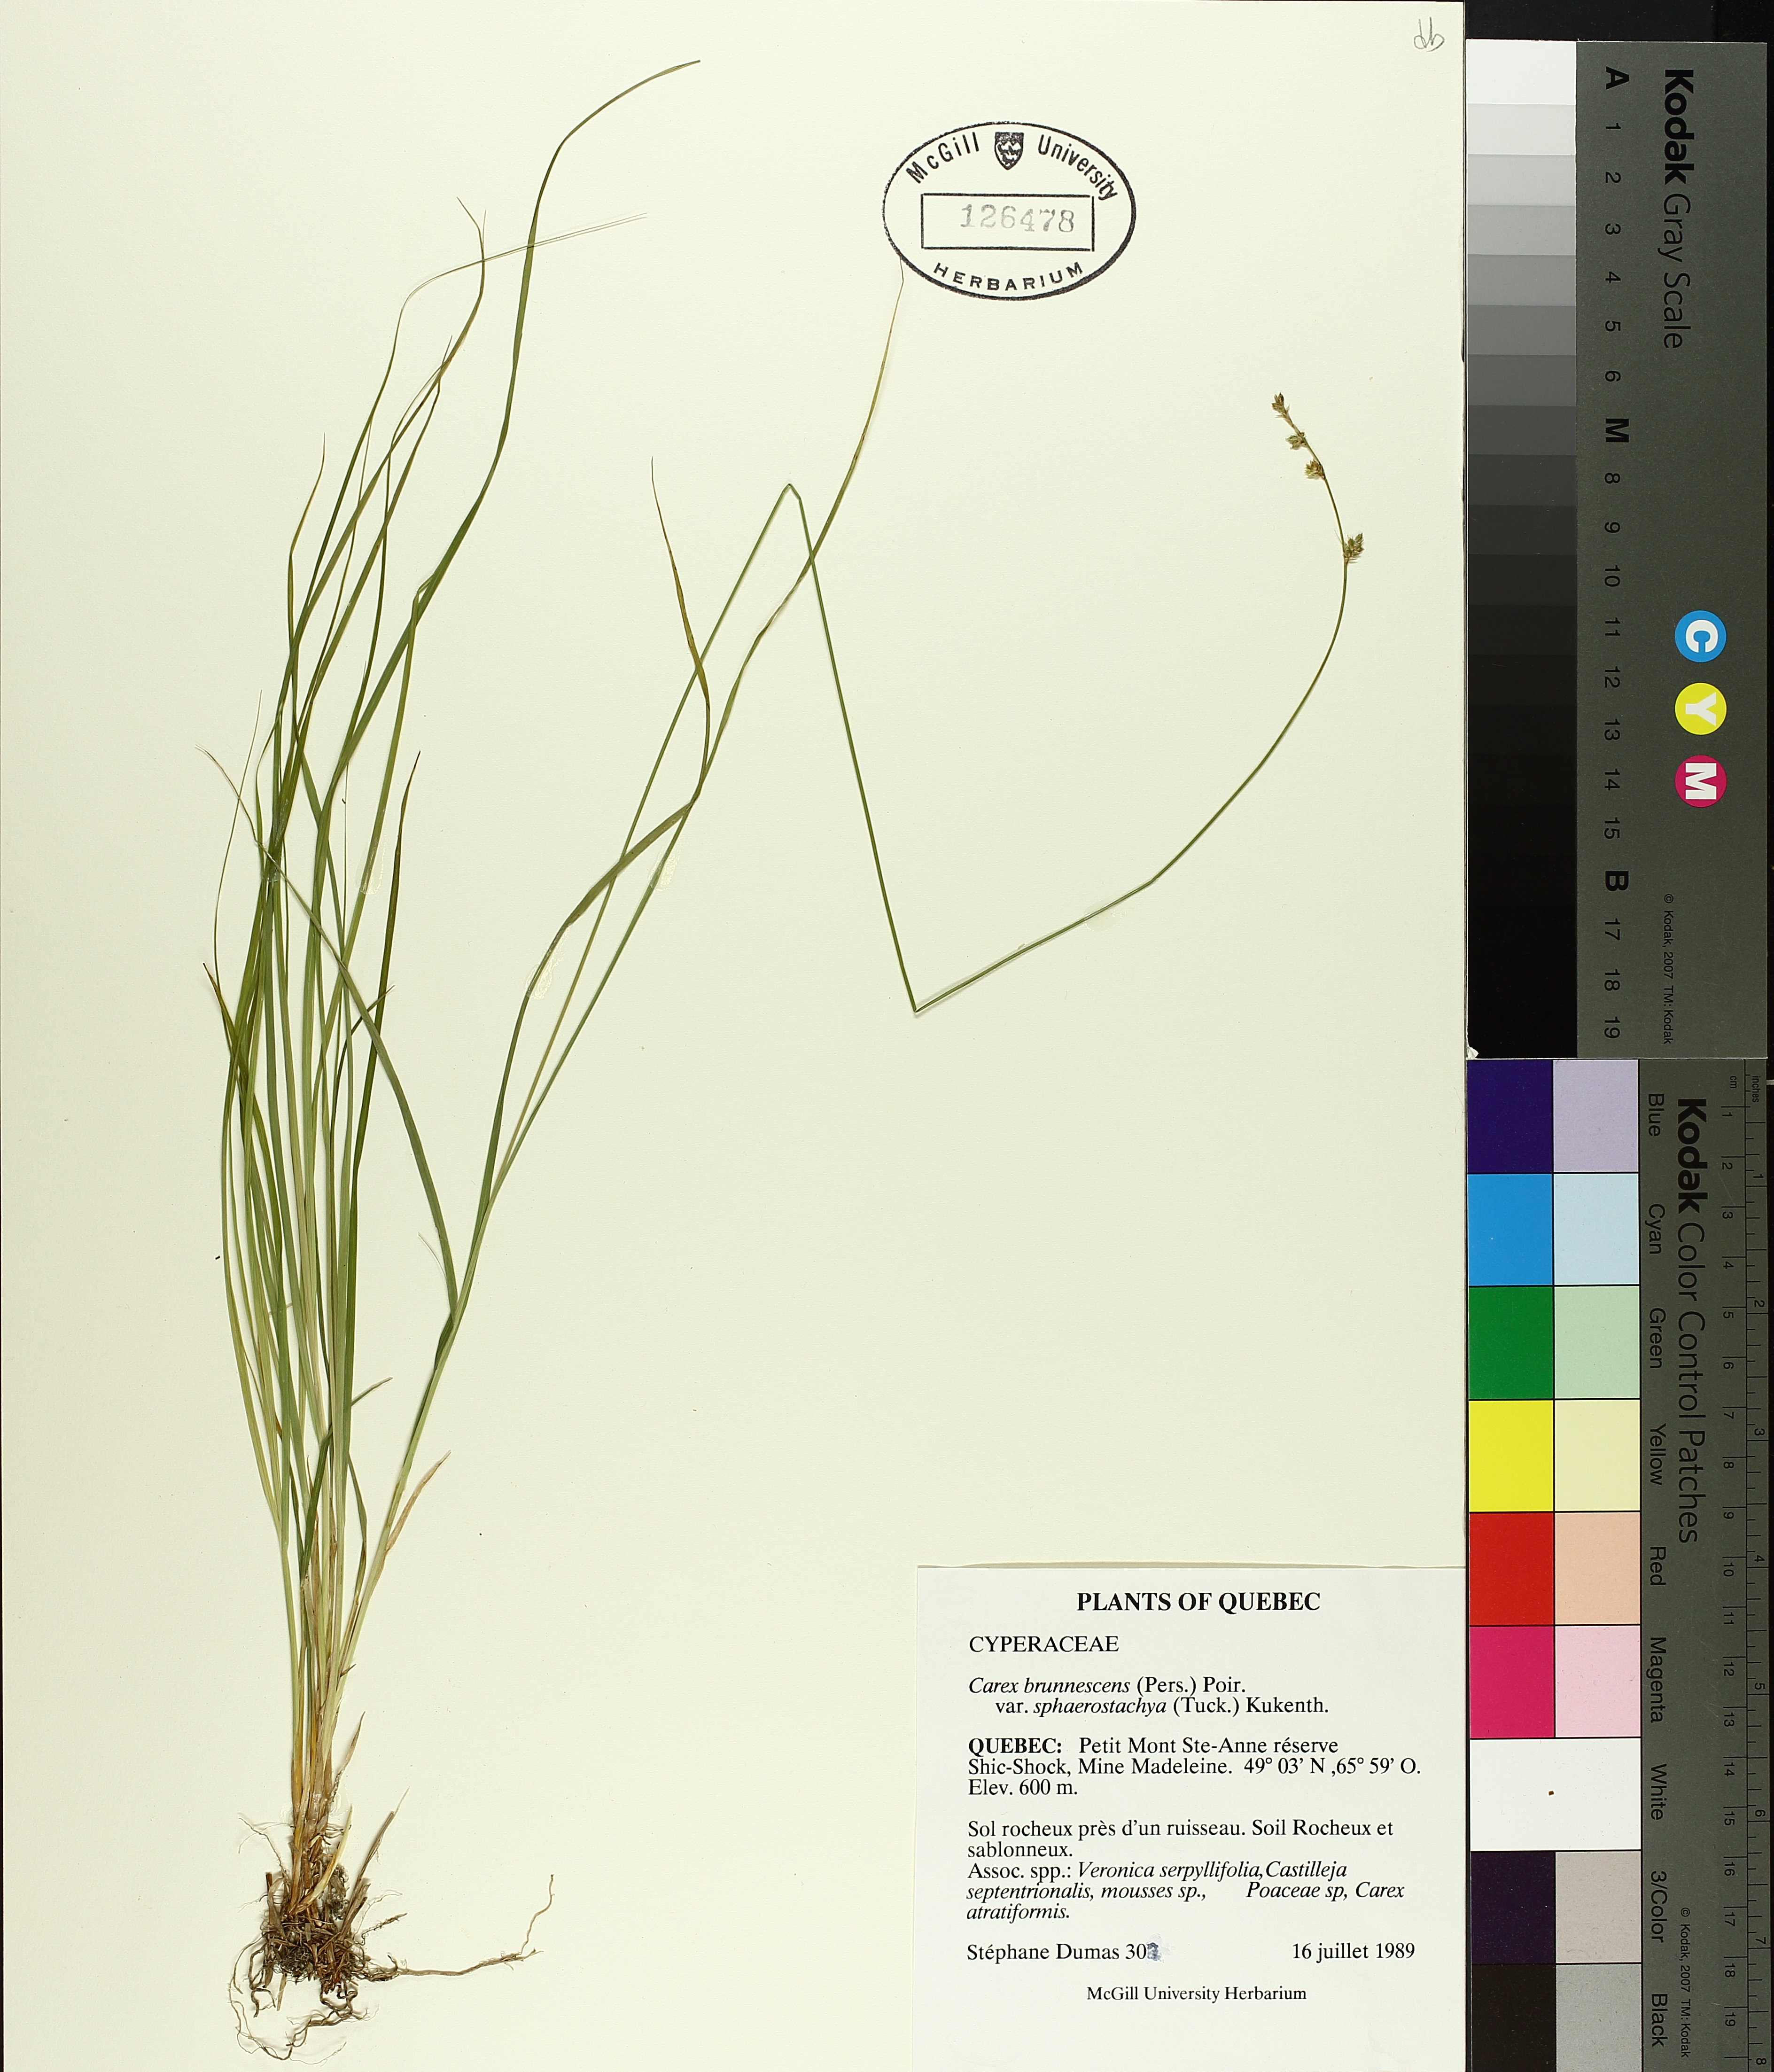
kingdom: Plantae
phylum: Tracheophyta
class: Liliopsida
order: Poales
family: Cyperaceae
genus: Carex
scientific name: Carex brunnescens
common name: Brown sedge
